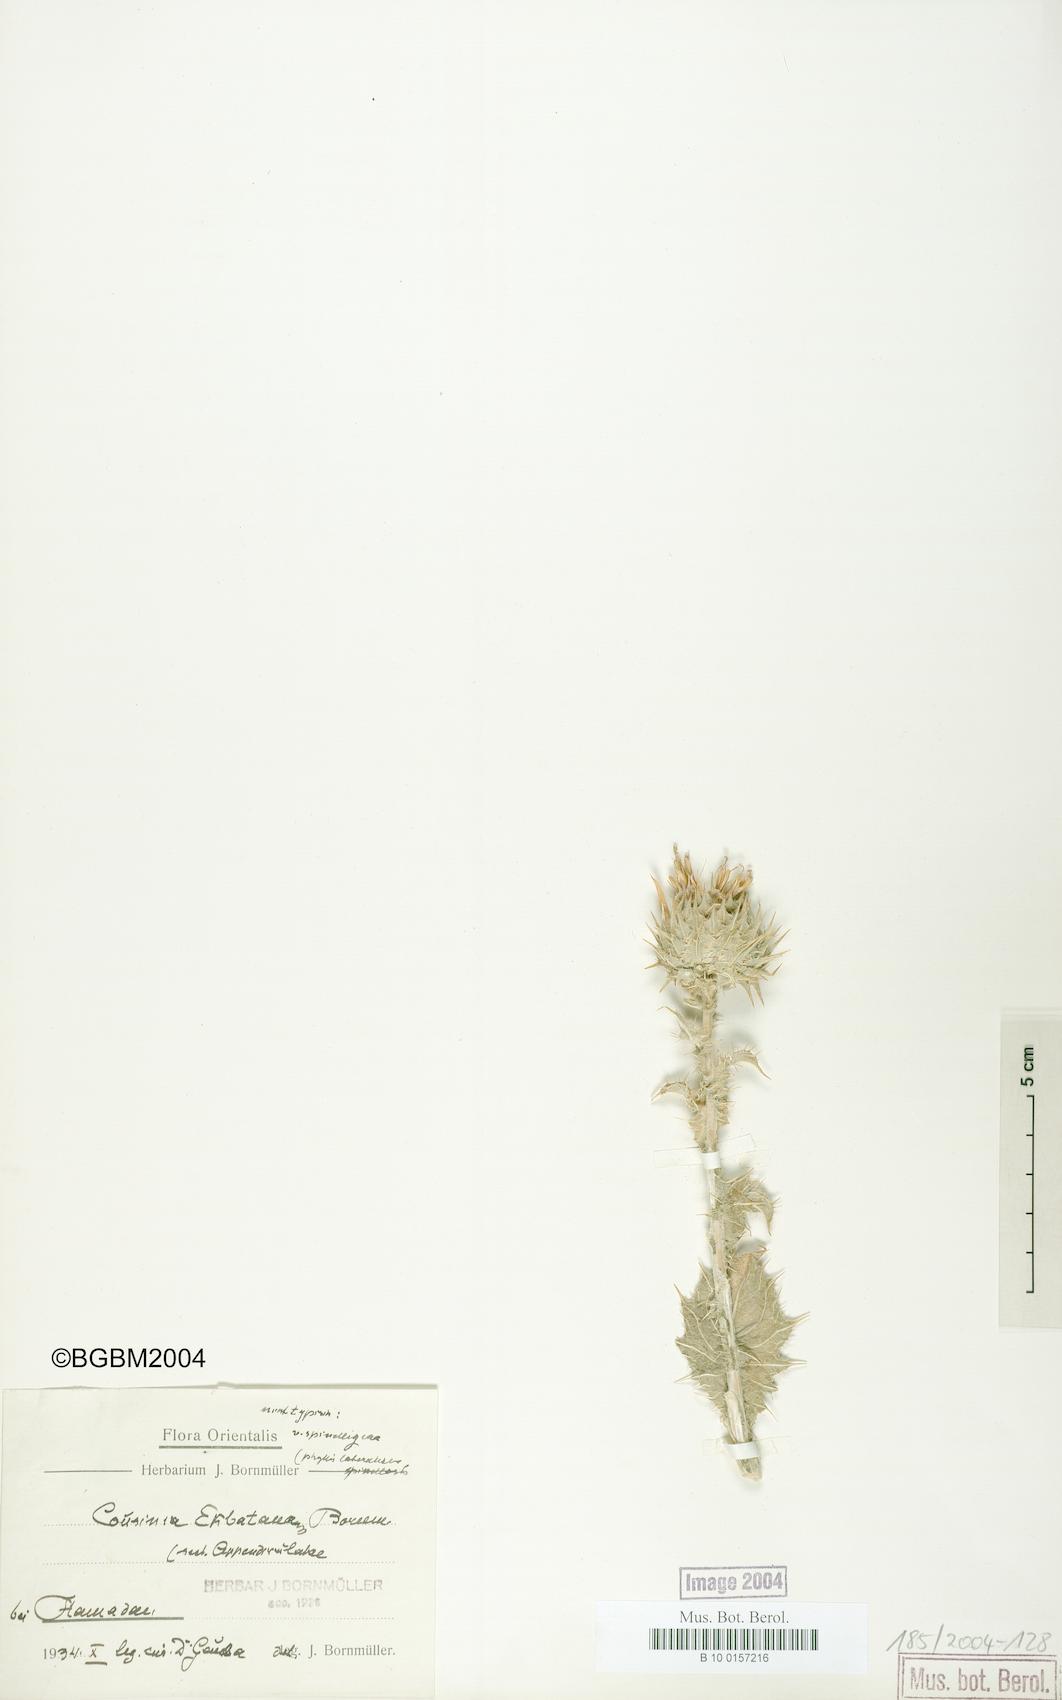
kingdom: Plantae
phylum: Tracheophyta
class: Magnoliopsida
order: Asterales
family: Asteraceae
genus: Cousinia
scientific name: Cousinia ecbatanensis
